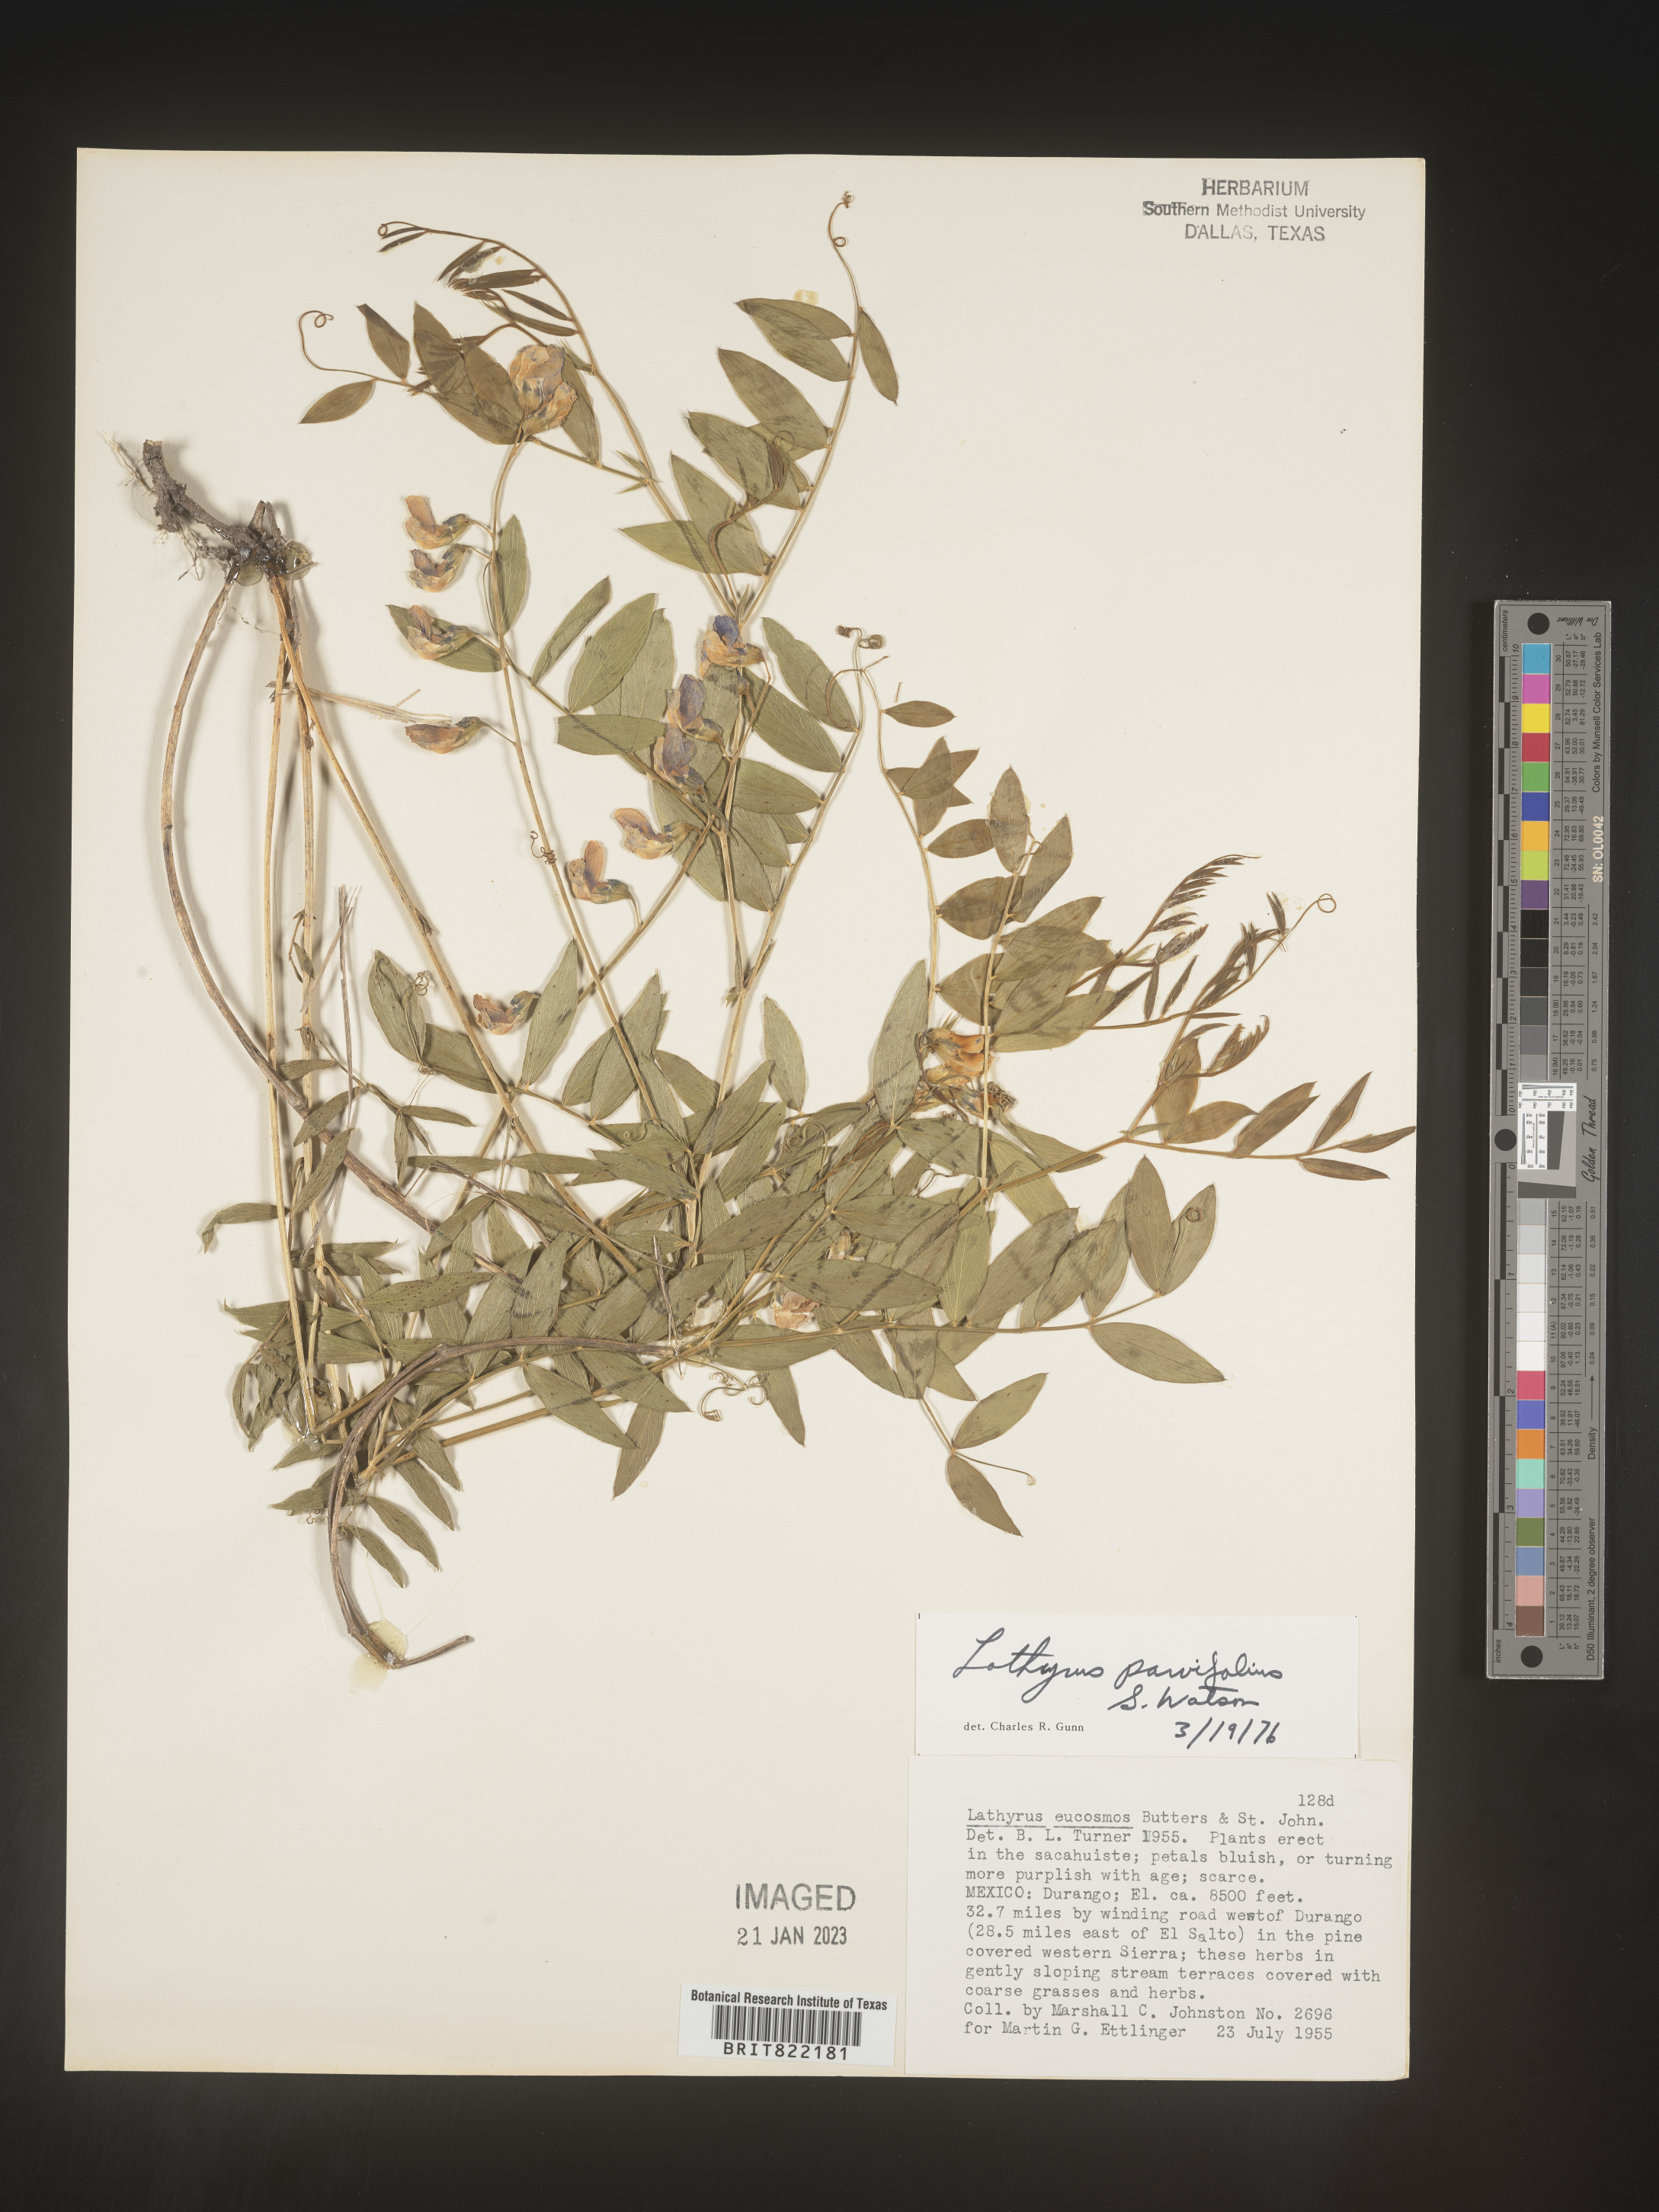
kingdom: Plantae
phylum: Tracheophyta
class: Magnoliopsida
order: Fabales
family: Fabaceae
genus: Lathyrus
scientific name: Lathyrus
